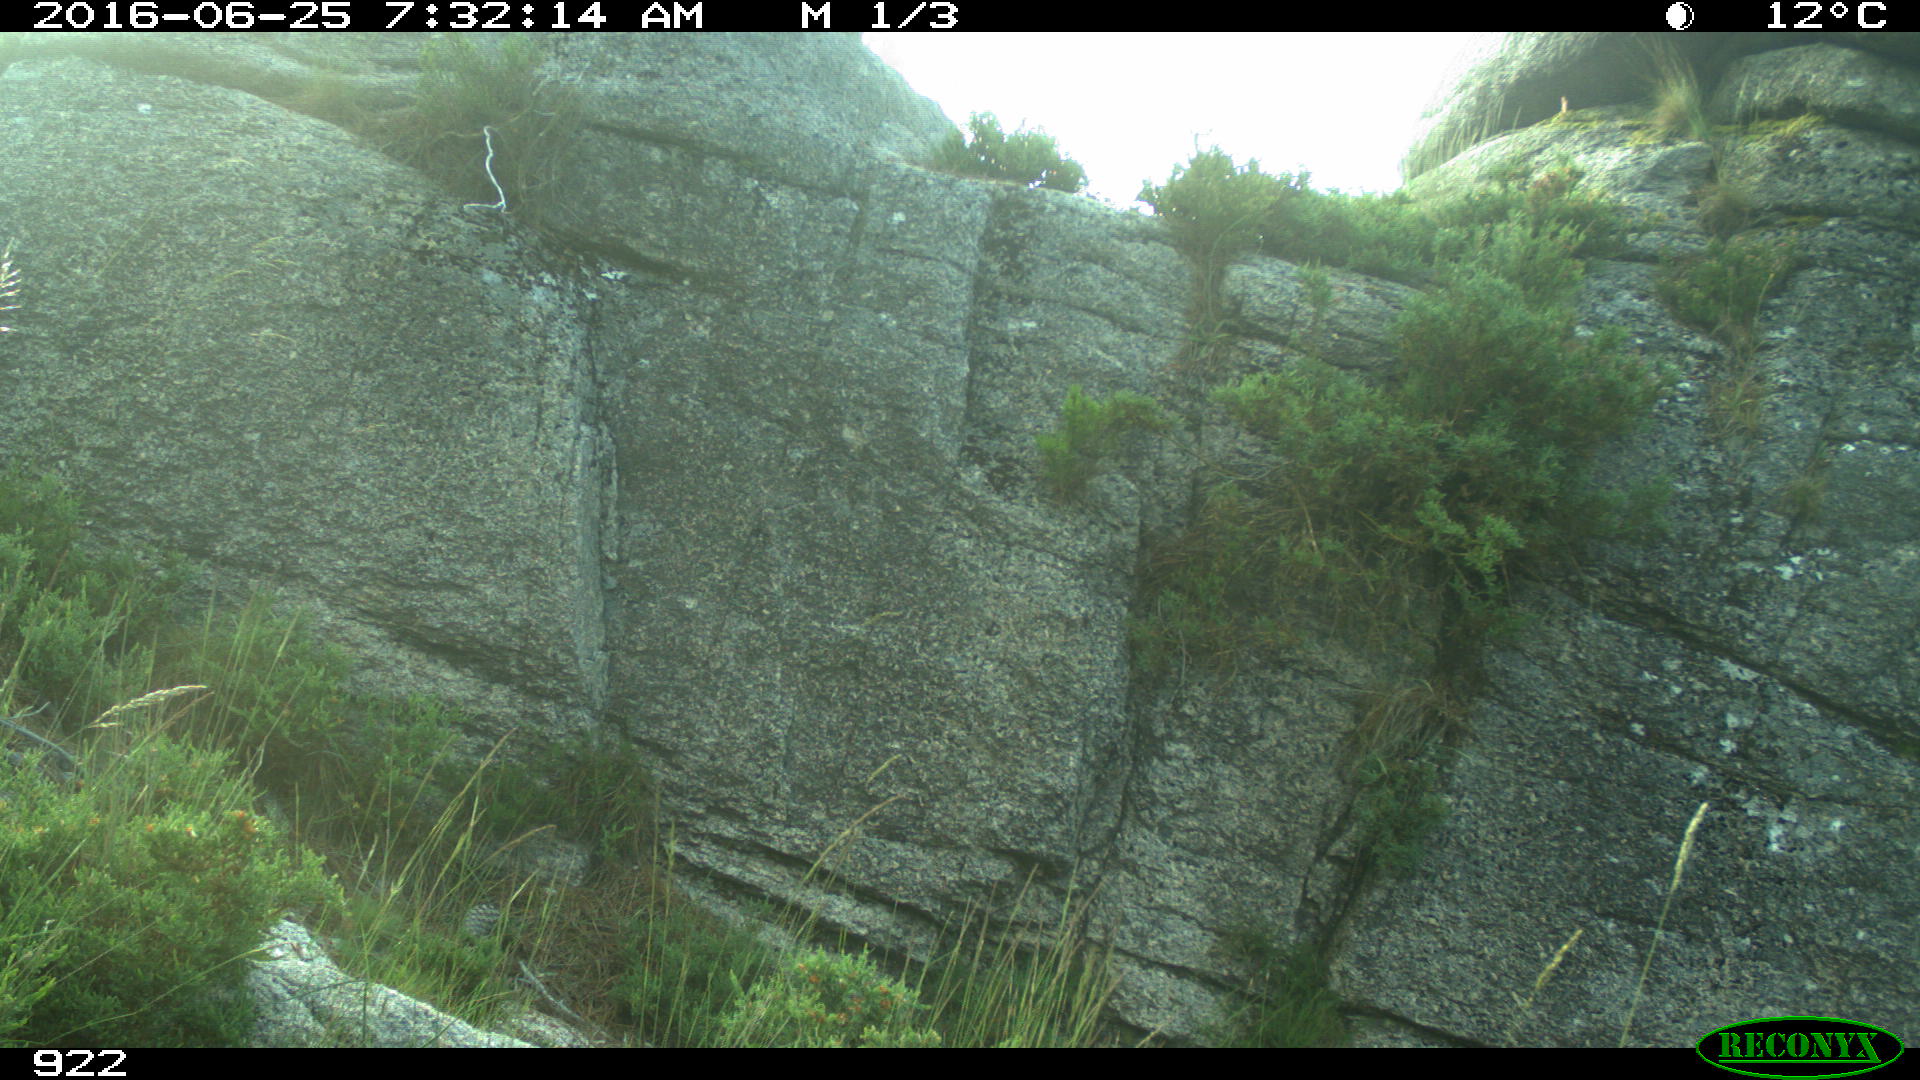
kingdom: Animalia
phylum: Chordata
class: Mammalia
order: Artiodactyla
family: Cervidae
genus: Capreolus
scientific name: Capreolus capreolus
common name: Western roe deer
